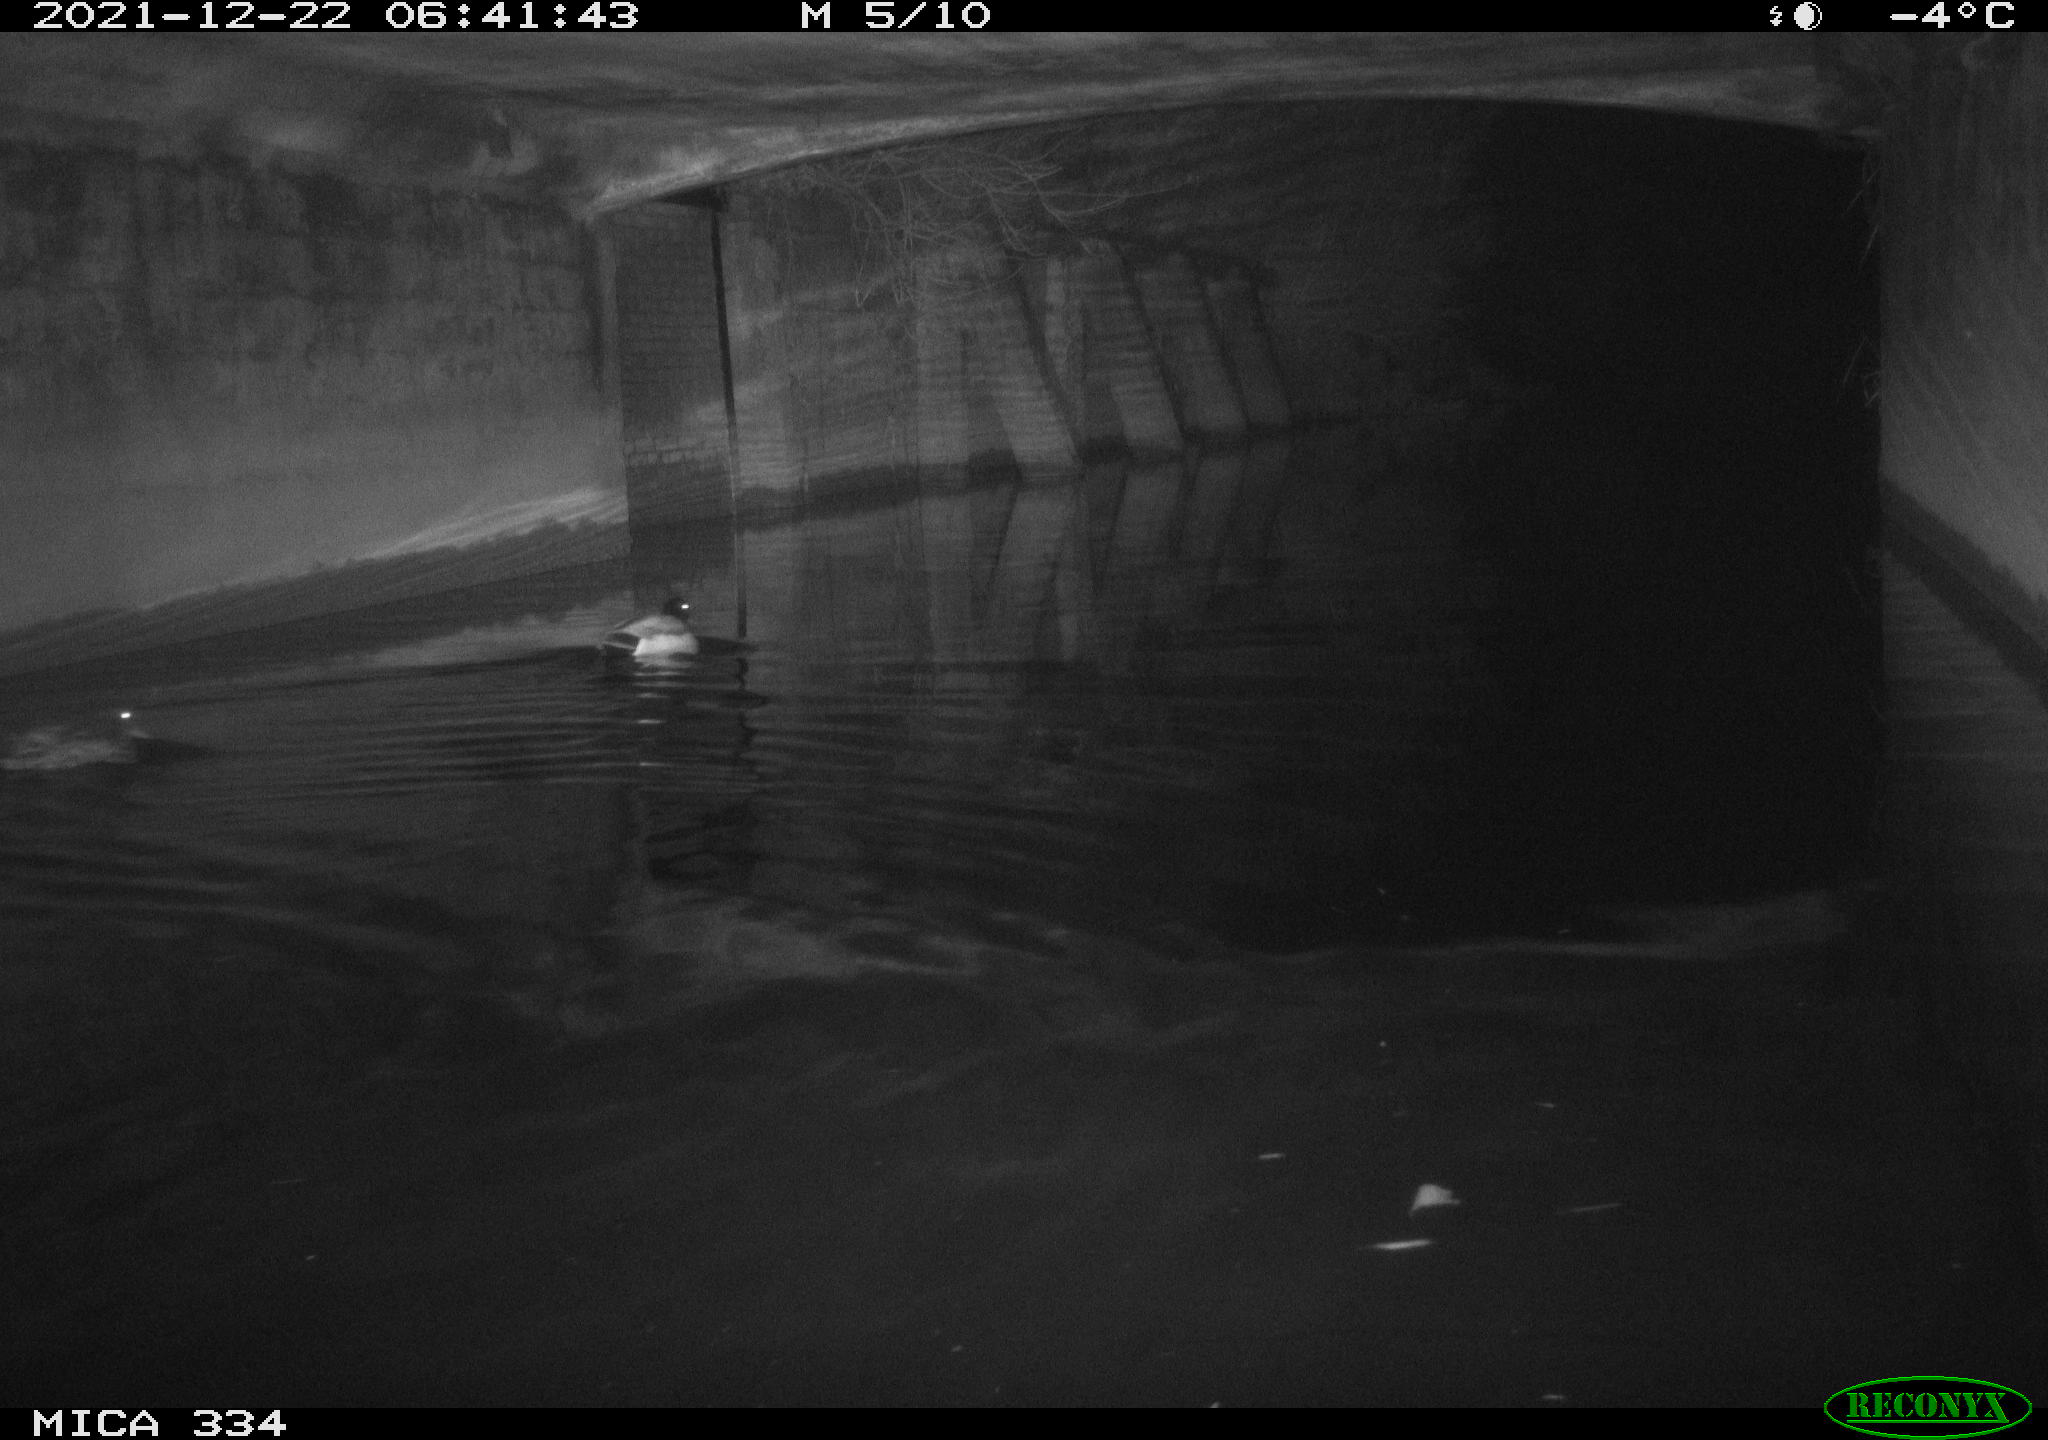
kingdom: Animalia
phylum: Chordata
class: Aves
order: Anseriformes
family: Anatidae
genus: Anas
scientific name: Anas platyrhynchos
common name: Mallard
